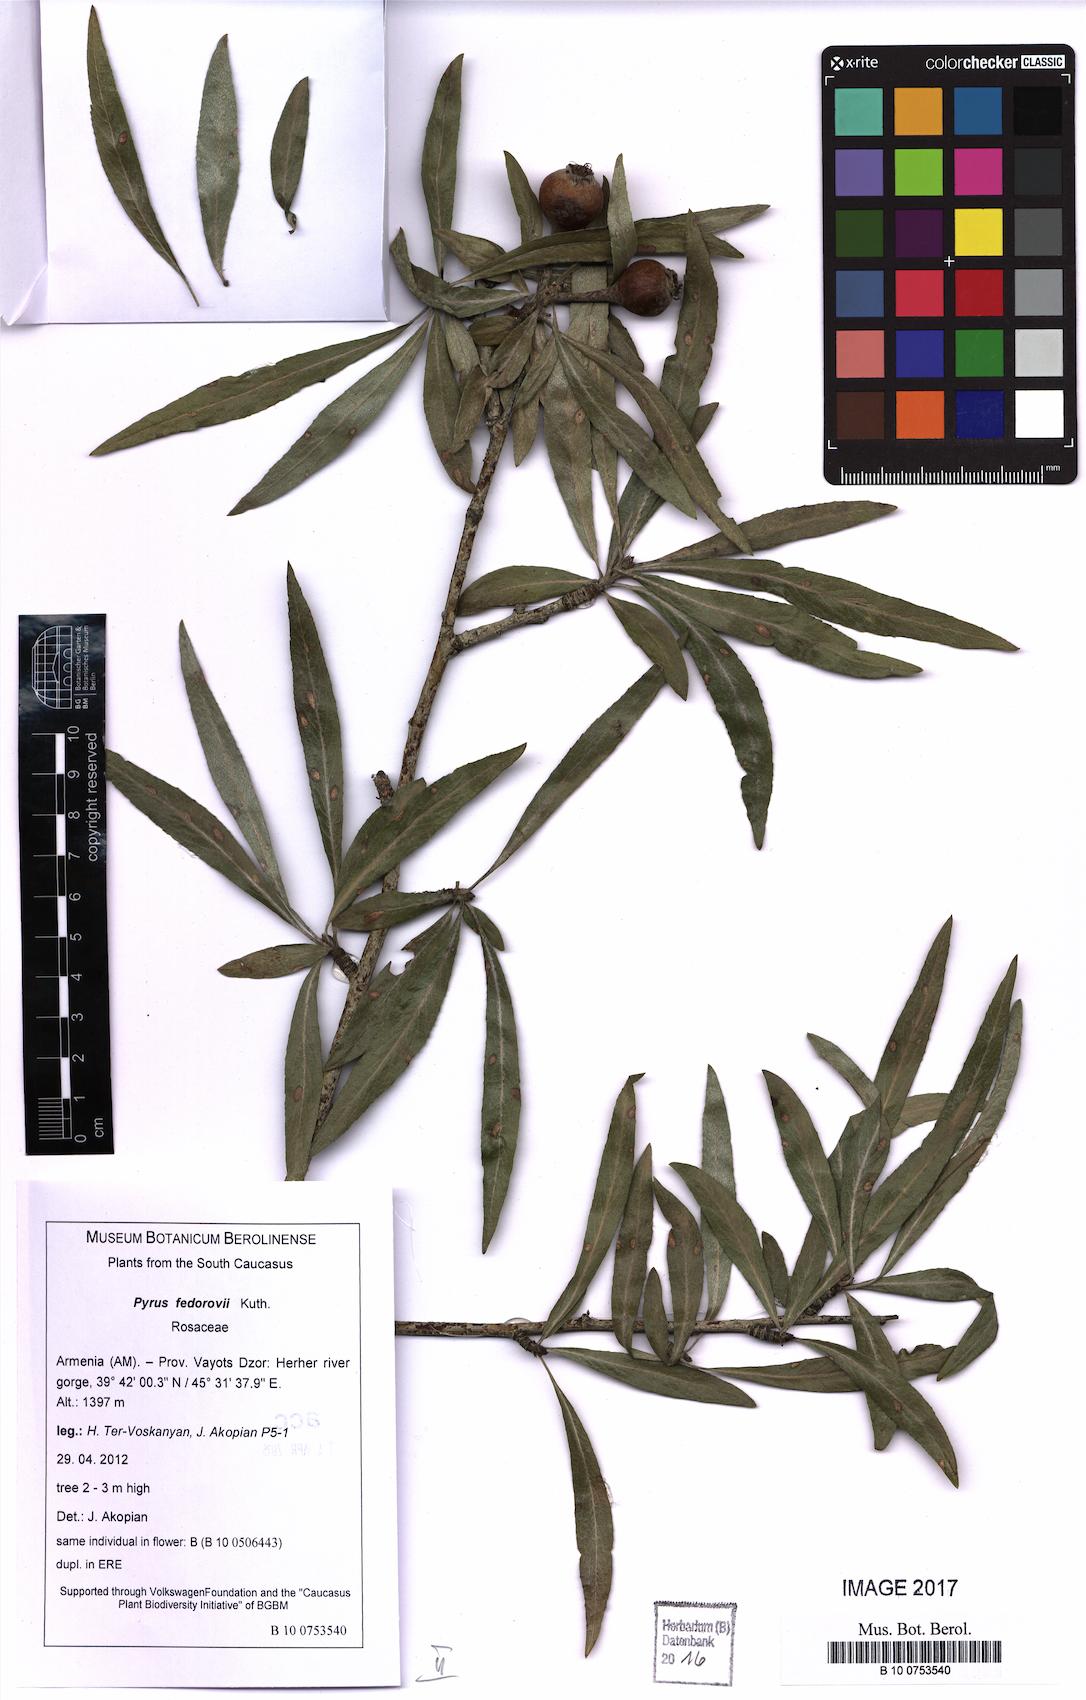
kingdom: Plantae
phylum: Tracheophyta
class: Magnoliopsida
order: Rosales
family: Rosaceae
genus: Pyrus
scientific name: Pyrus fedorovii
